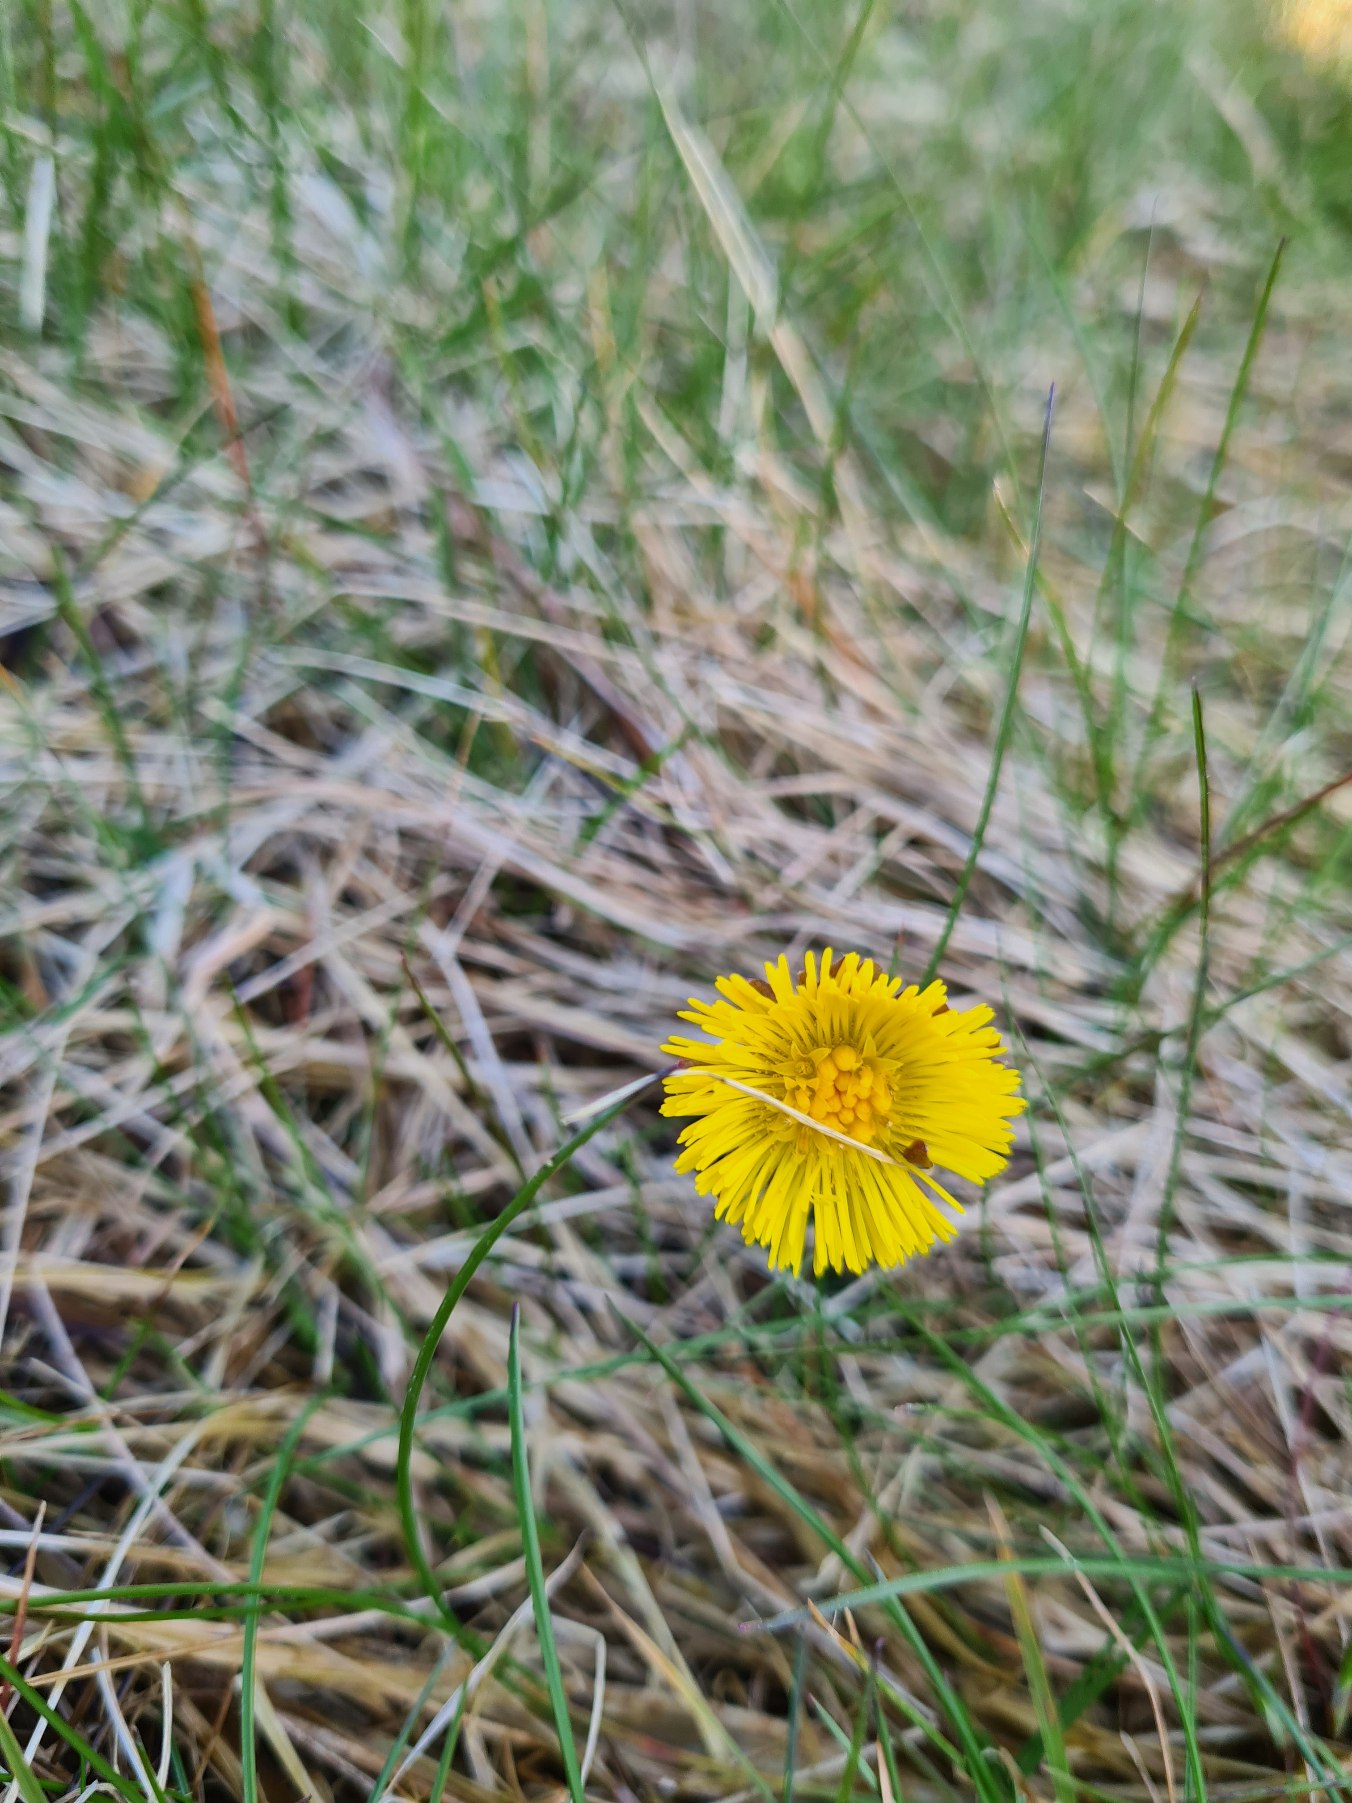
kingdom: Plantae
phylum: Tracheophyta
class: Magnoliopsida
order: Asterales
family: Asteraceae
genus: Tussilago
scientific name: Tussilago farfara
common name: Følfod
